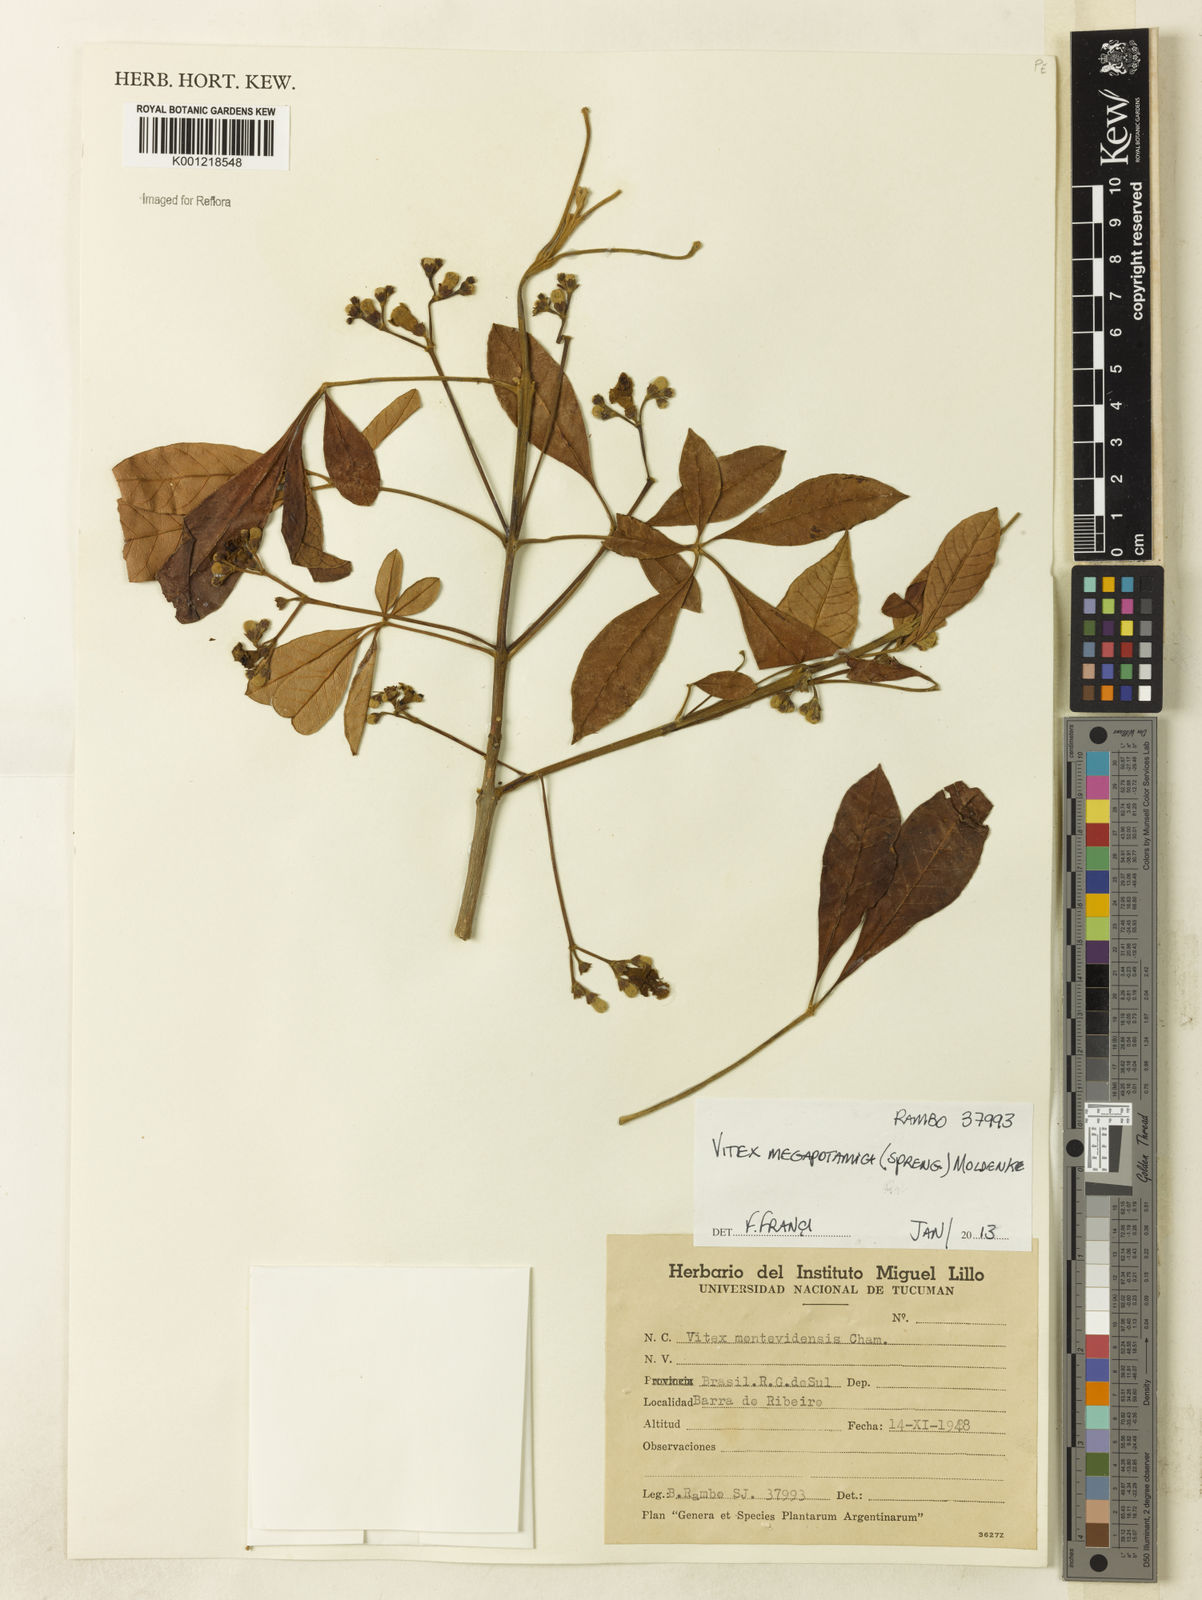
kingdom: Plantae
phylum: Tracheophyta
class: Magnoliopsida
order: Lamiales
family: Lamiaceae
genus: Vitex
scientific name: Vitex megapotamica
